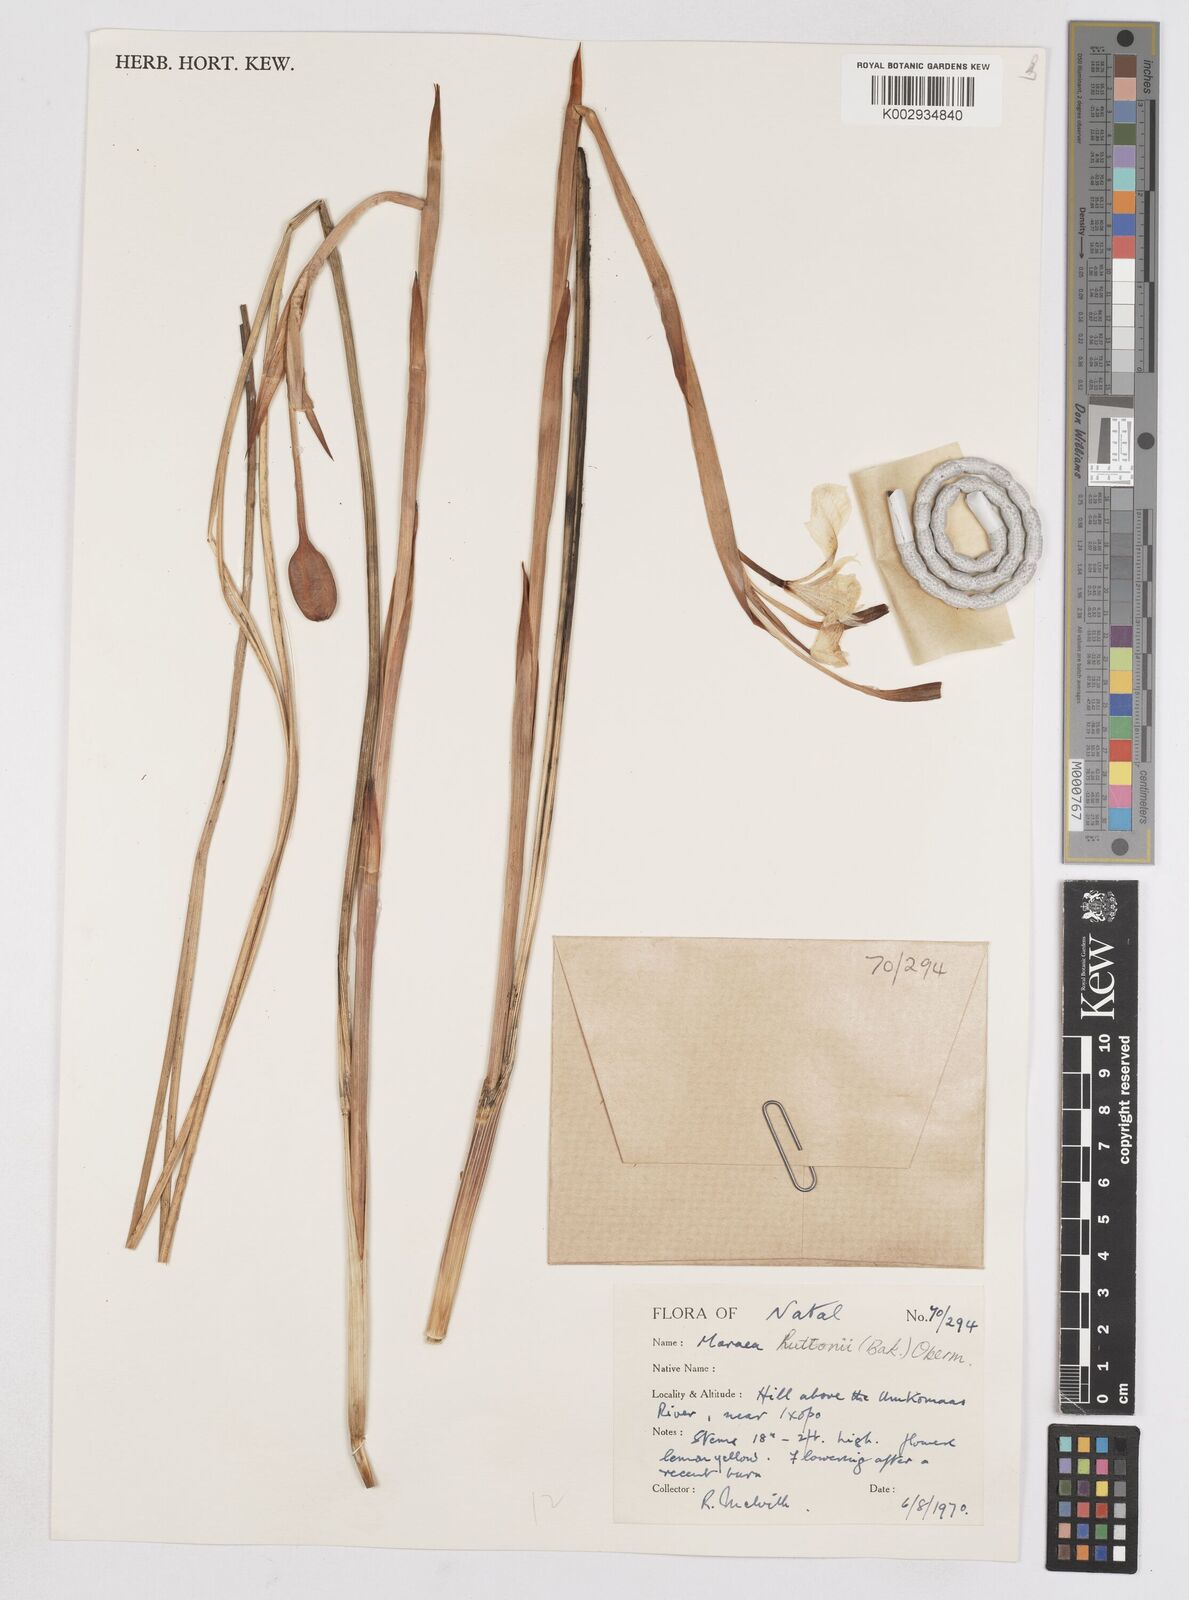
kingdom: Plantae
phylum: Tracheophyta
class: Liliopsida
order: Asparagales
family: Iridaceae
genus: Moraea
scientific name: Moraea huttonii
